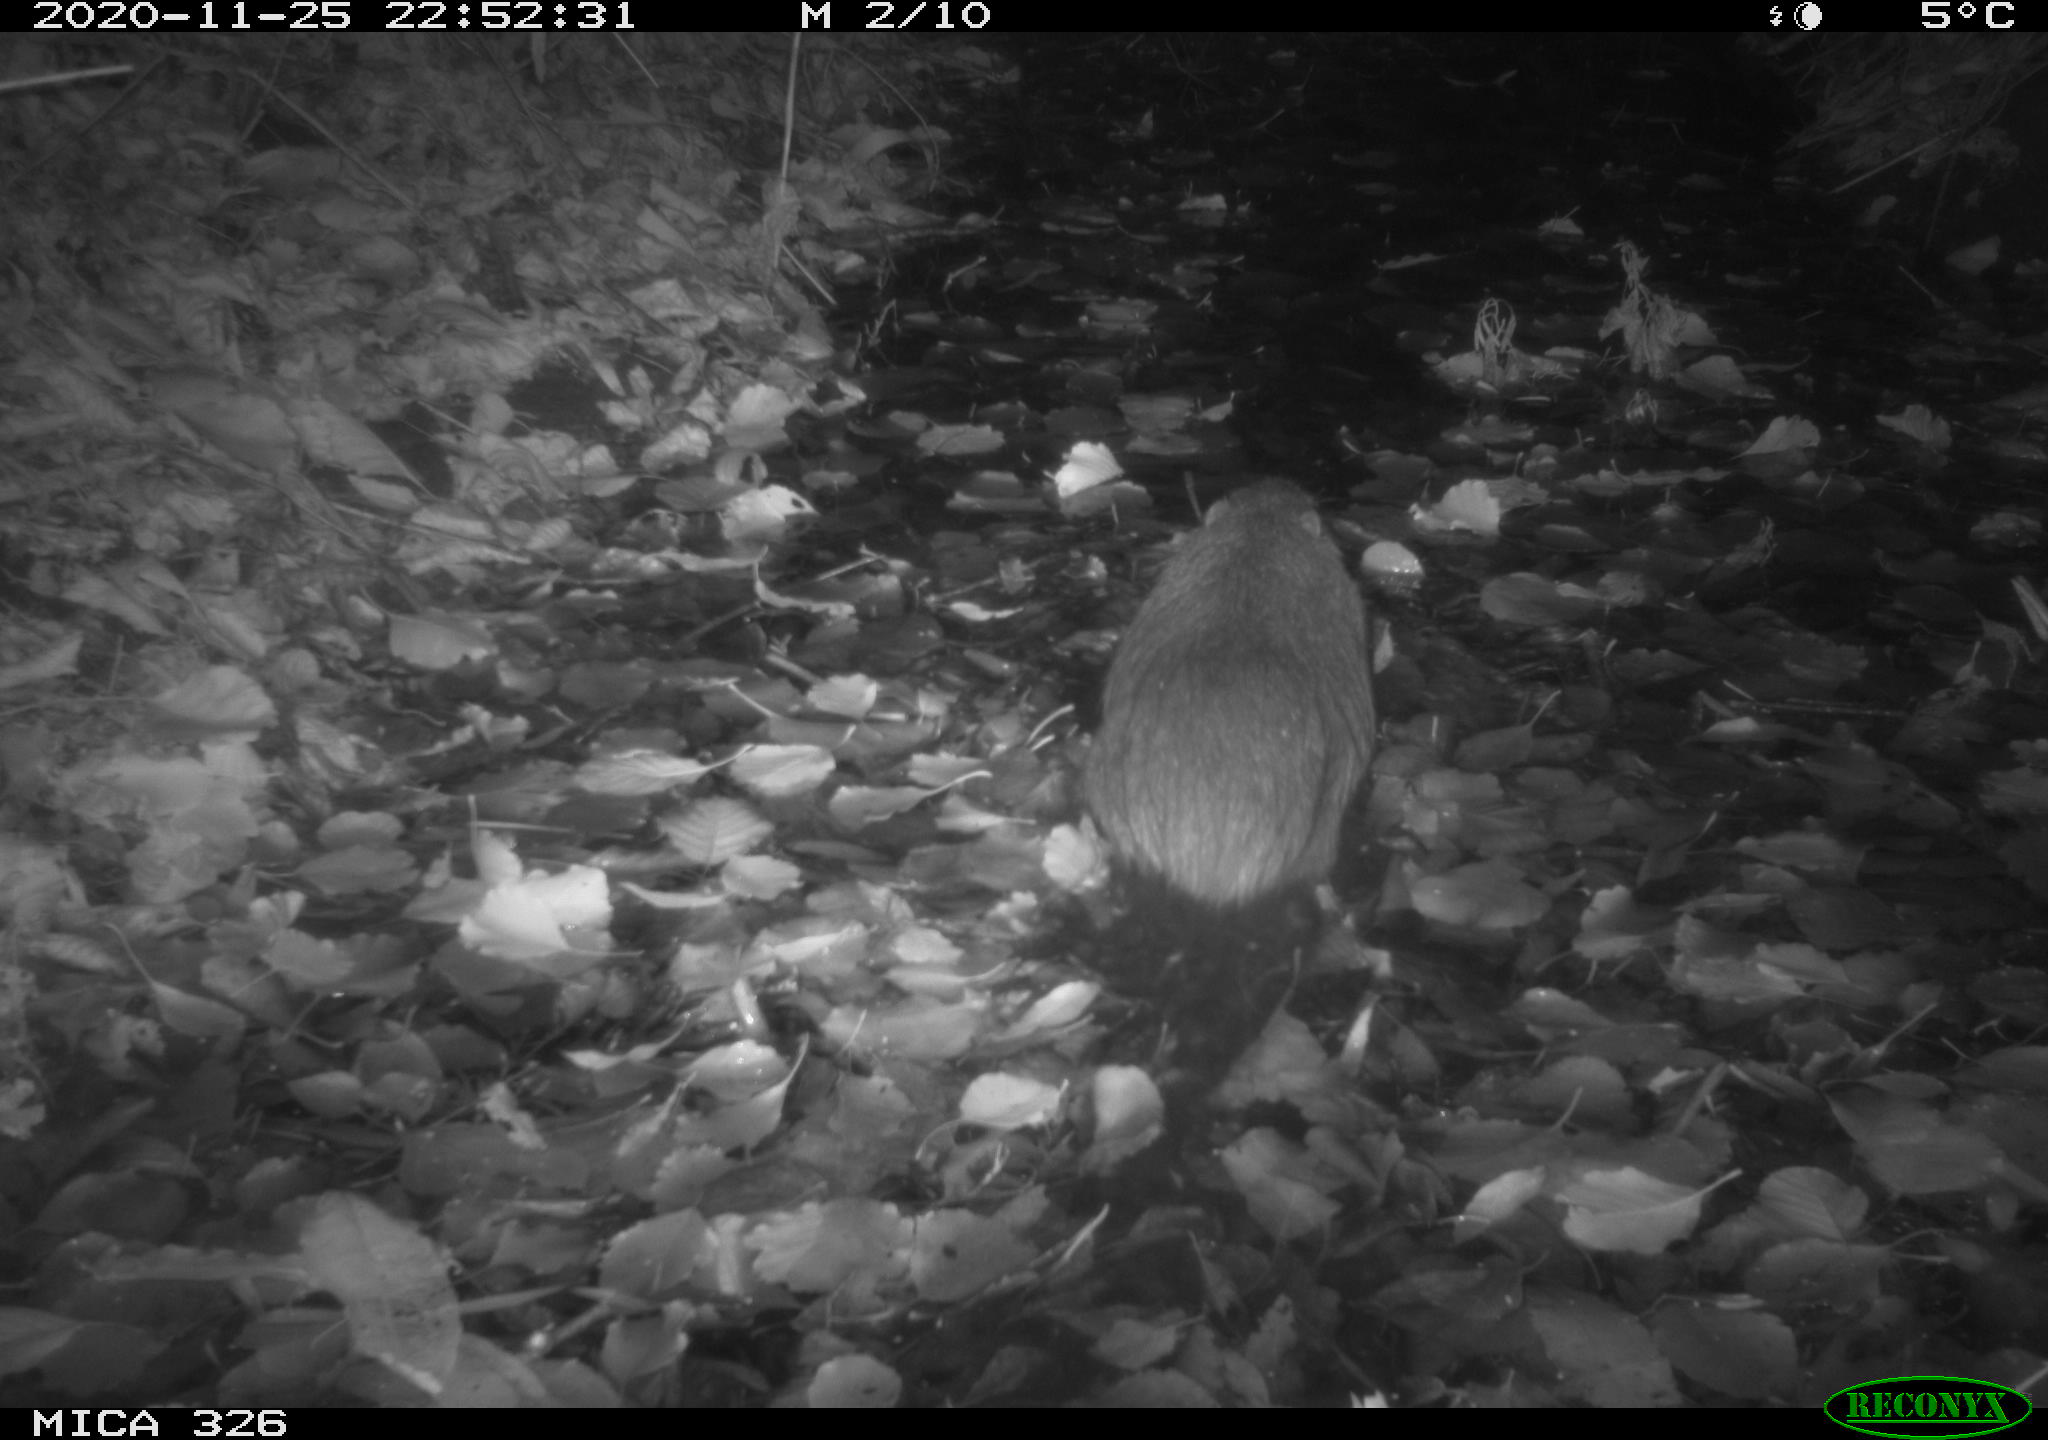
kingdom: Animalia
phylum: Chordata
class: Mammalia
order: Rodentia
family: Myocastoridae
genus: Myocastor
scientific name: Myocastor coypus
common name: Coypu
